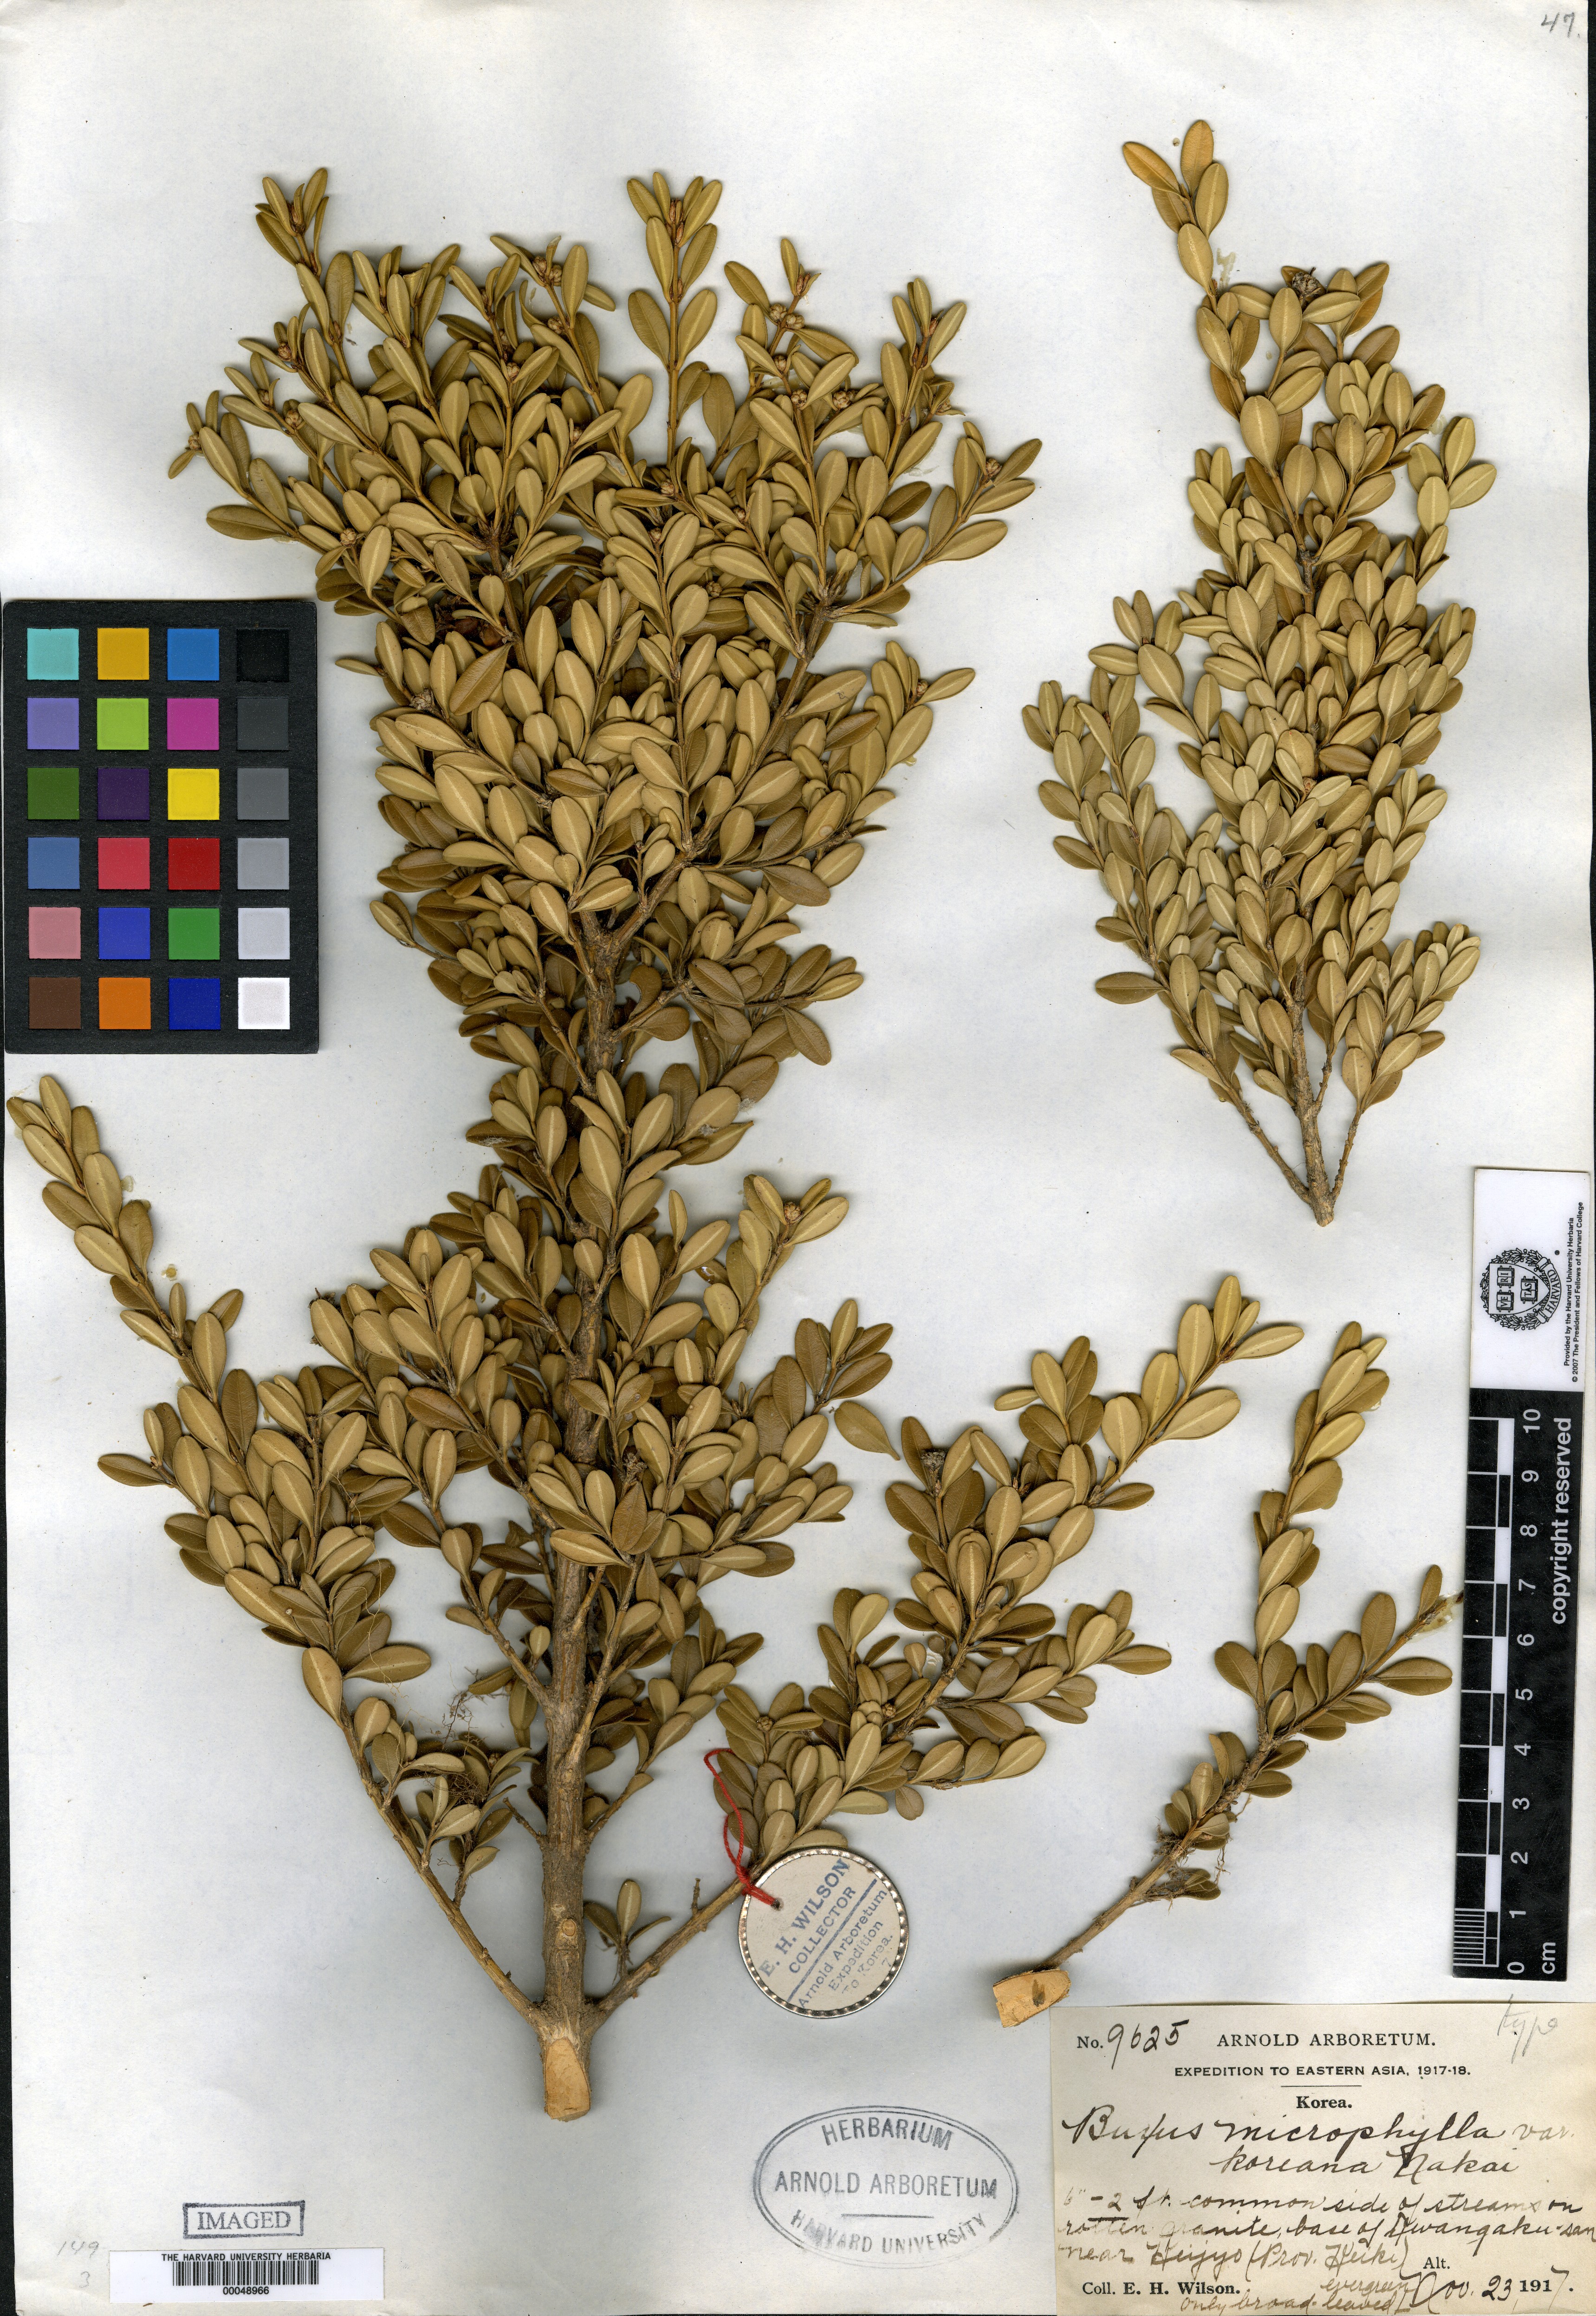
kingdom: Plantae
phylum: Tracheophyta
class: Magnoliopsida
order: Buxales
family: Buxaceae
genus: Buxus
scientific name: Buxus microphylla
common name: Littleleaf boxwood
